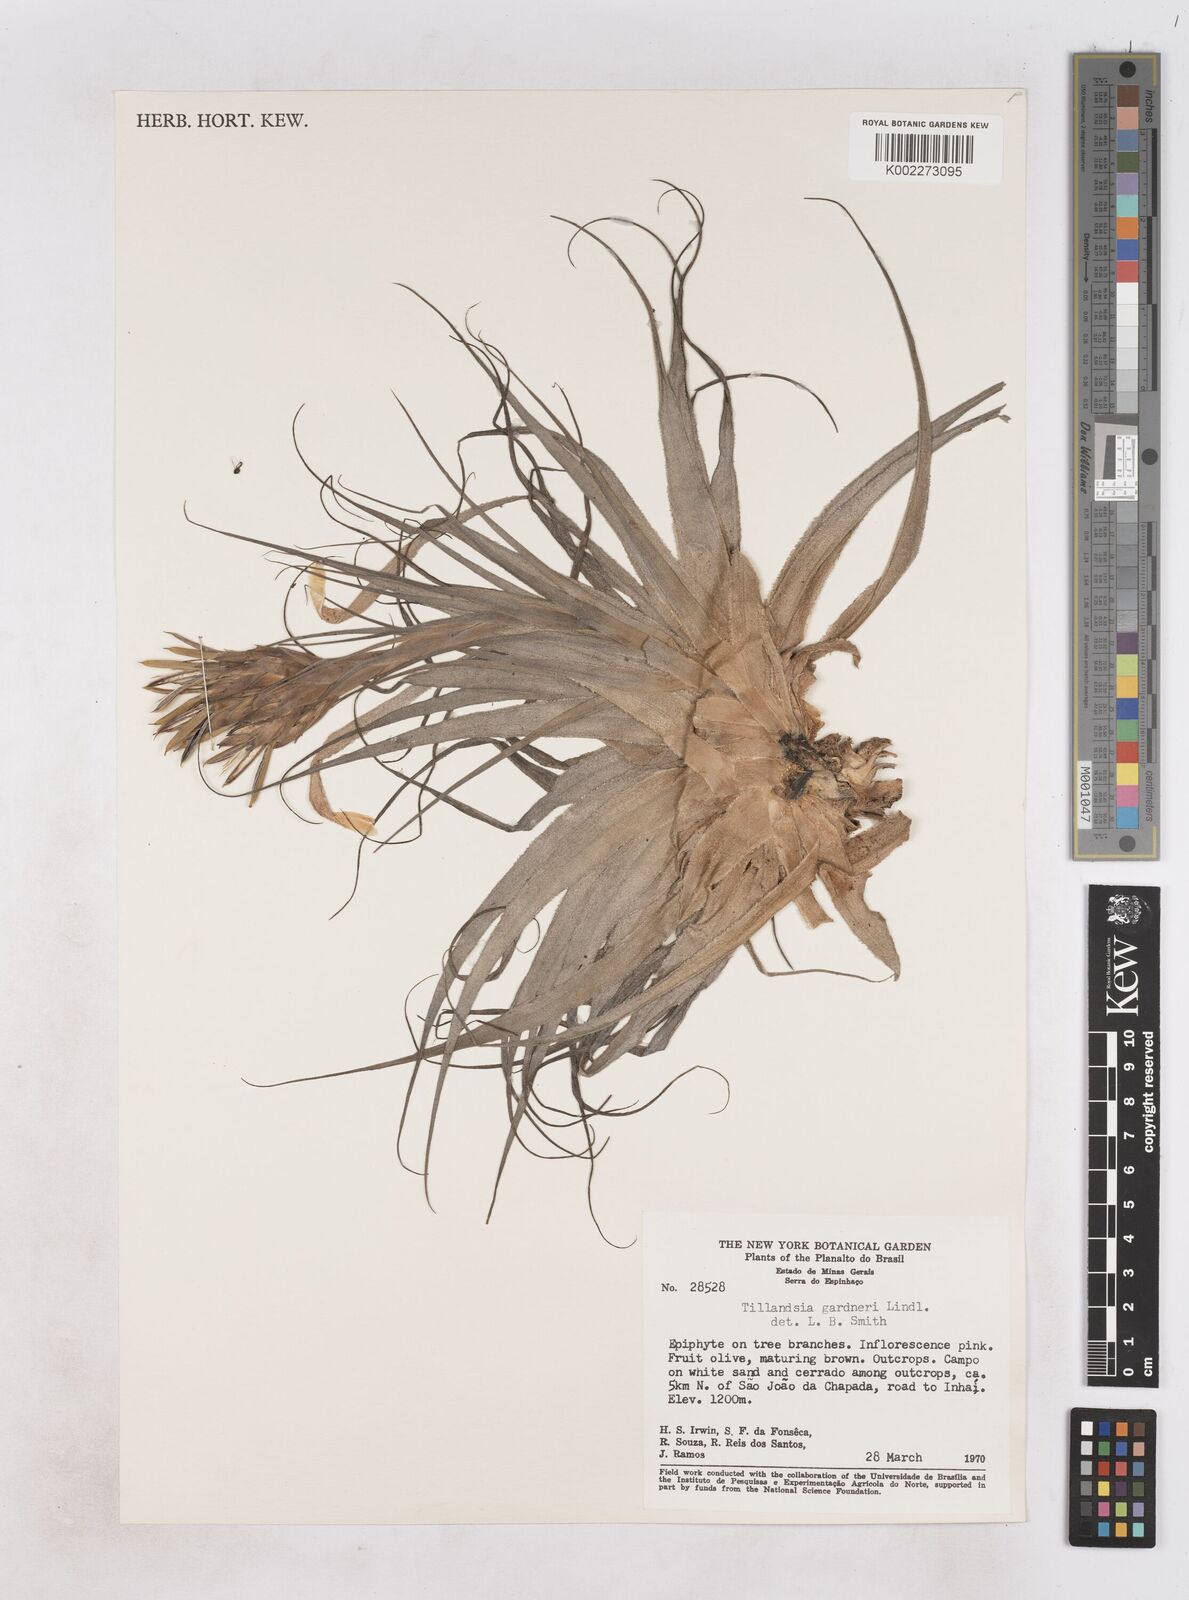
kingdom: Plantae
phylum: Tracheophyta
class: Liliopsida
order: Poales
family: Bromeliaceae
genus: Tillandsia
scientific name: Tillandsia gardneri
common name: Airplant
